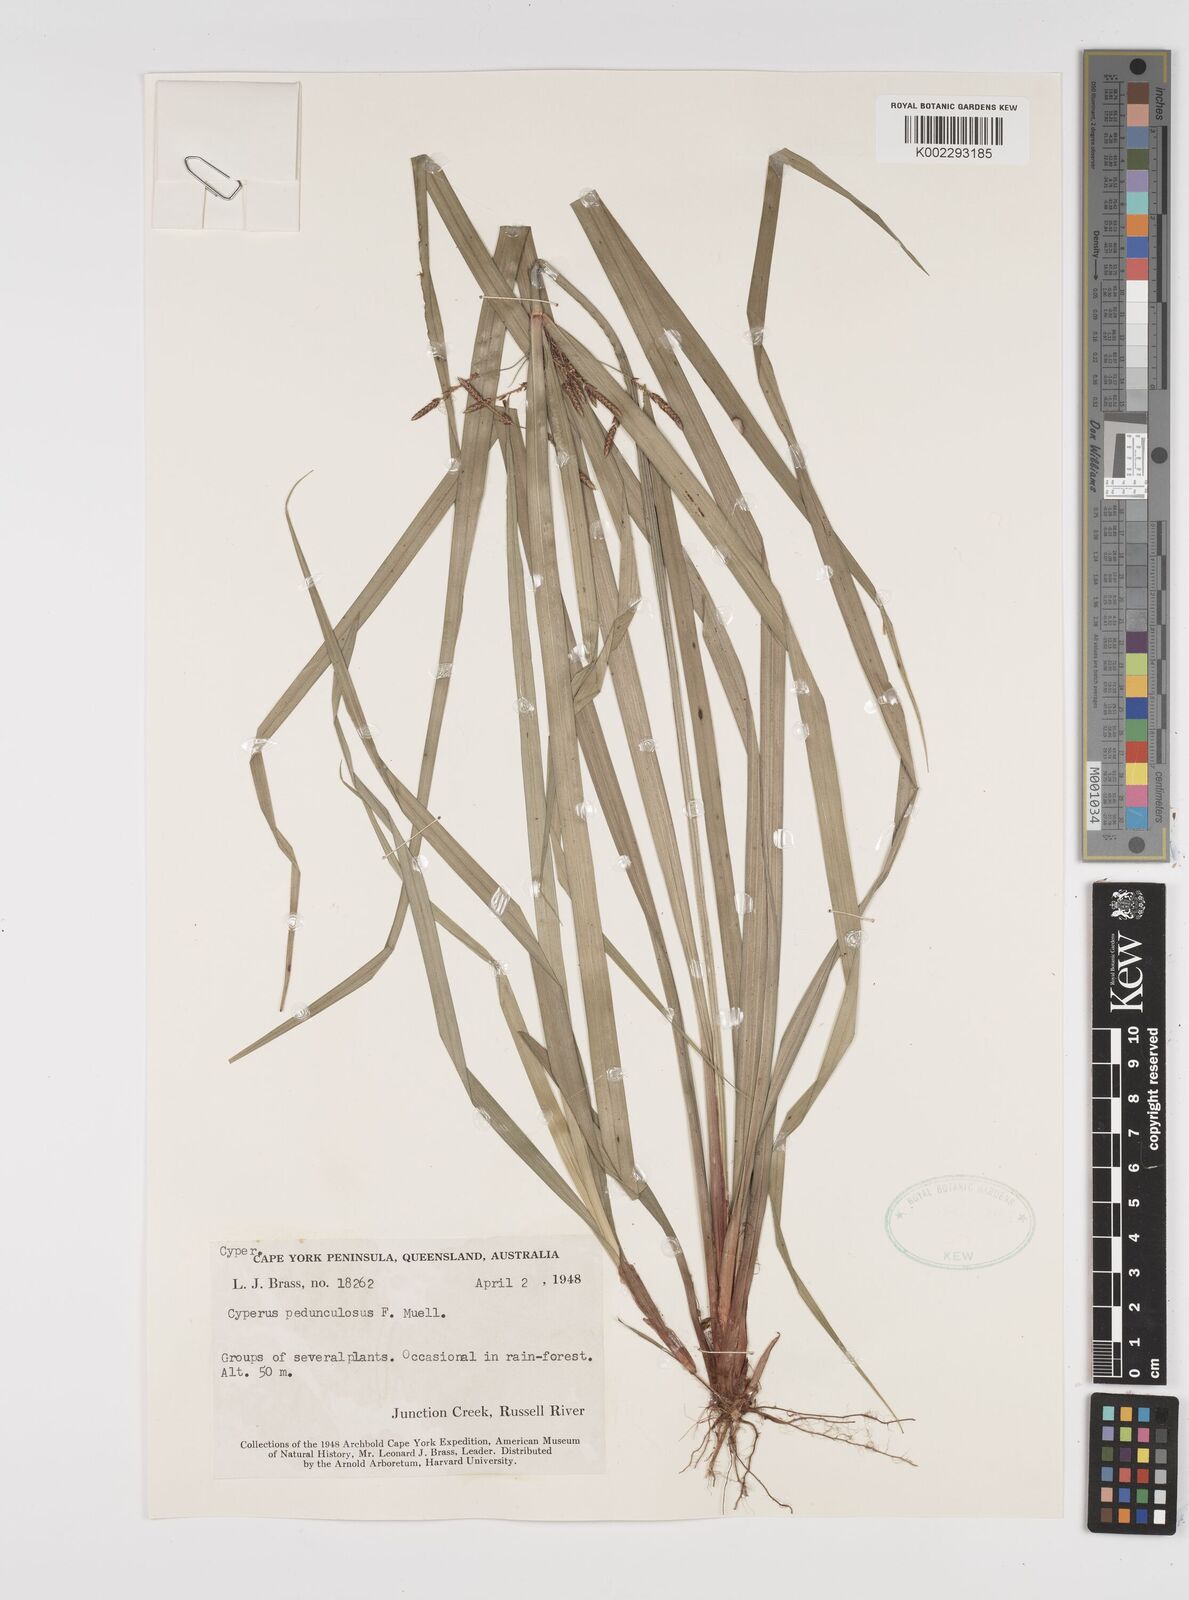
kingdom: Plantae
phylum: Tracheophyta
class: Liliopsida
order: Poales
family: Cyperaceae
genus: Cyperus
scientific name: Cyperus pedunculosus
